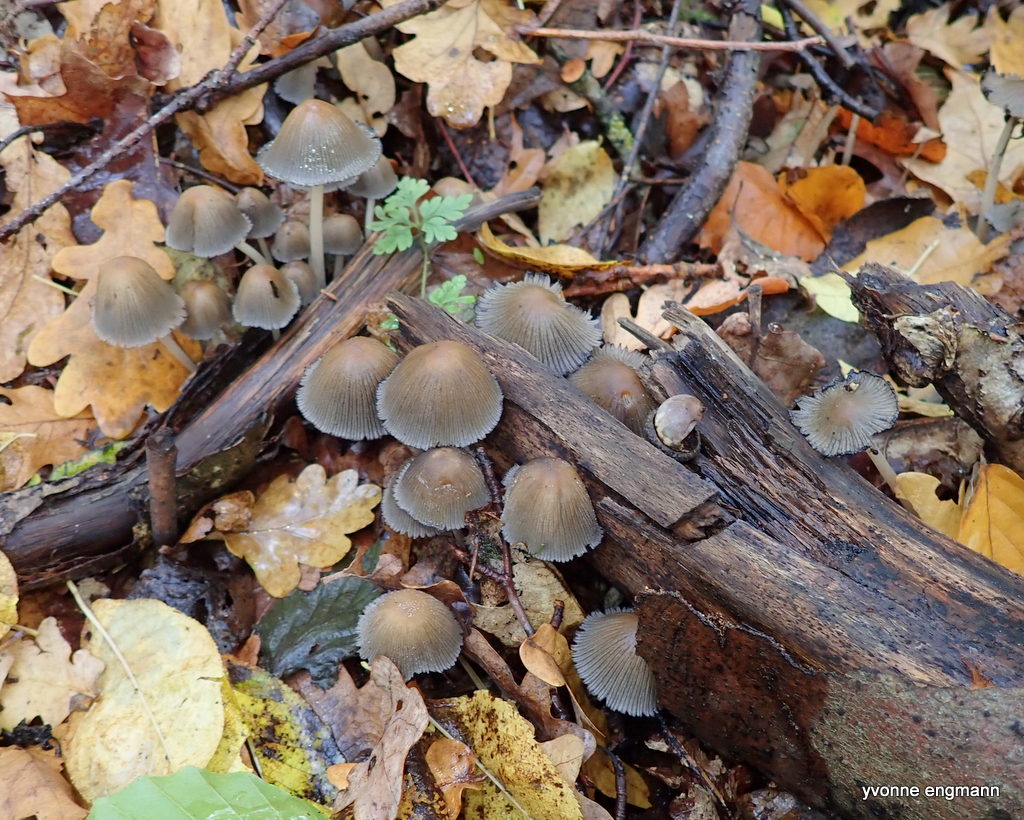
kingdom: Fungi
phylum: Basidiomycota
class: Agaricomycetes
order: Agaricales
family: Psathyrellaceae
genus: Coprinellus
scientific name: Coprinellus micaceus
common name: glimmer-blækhat
